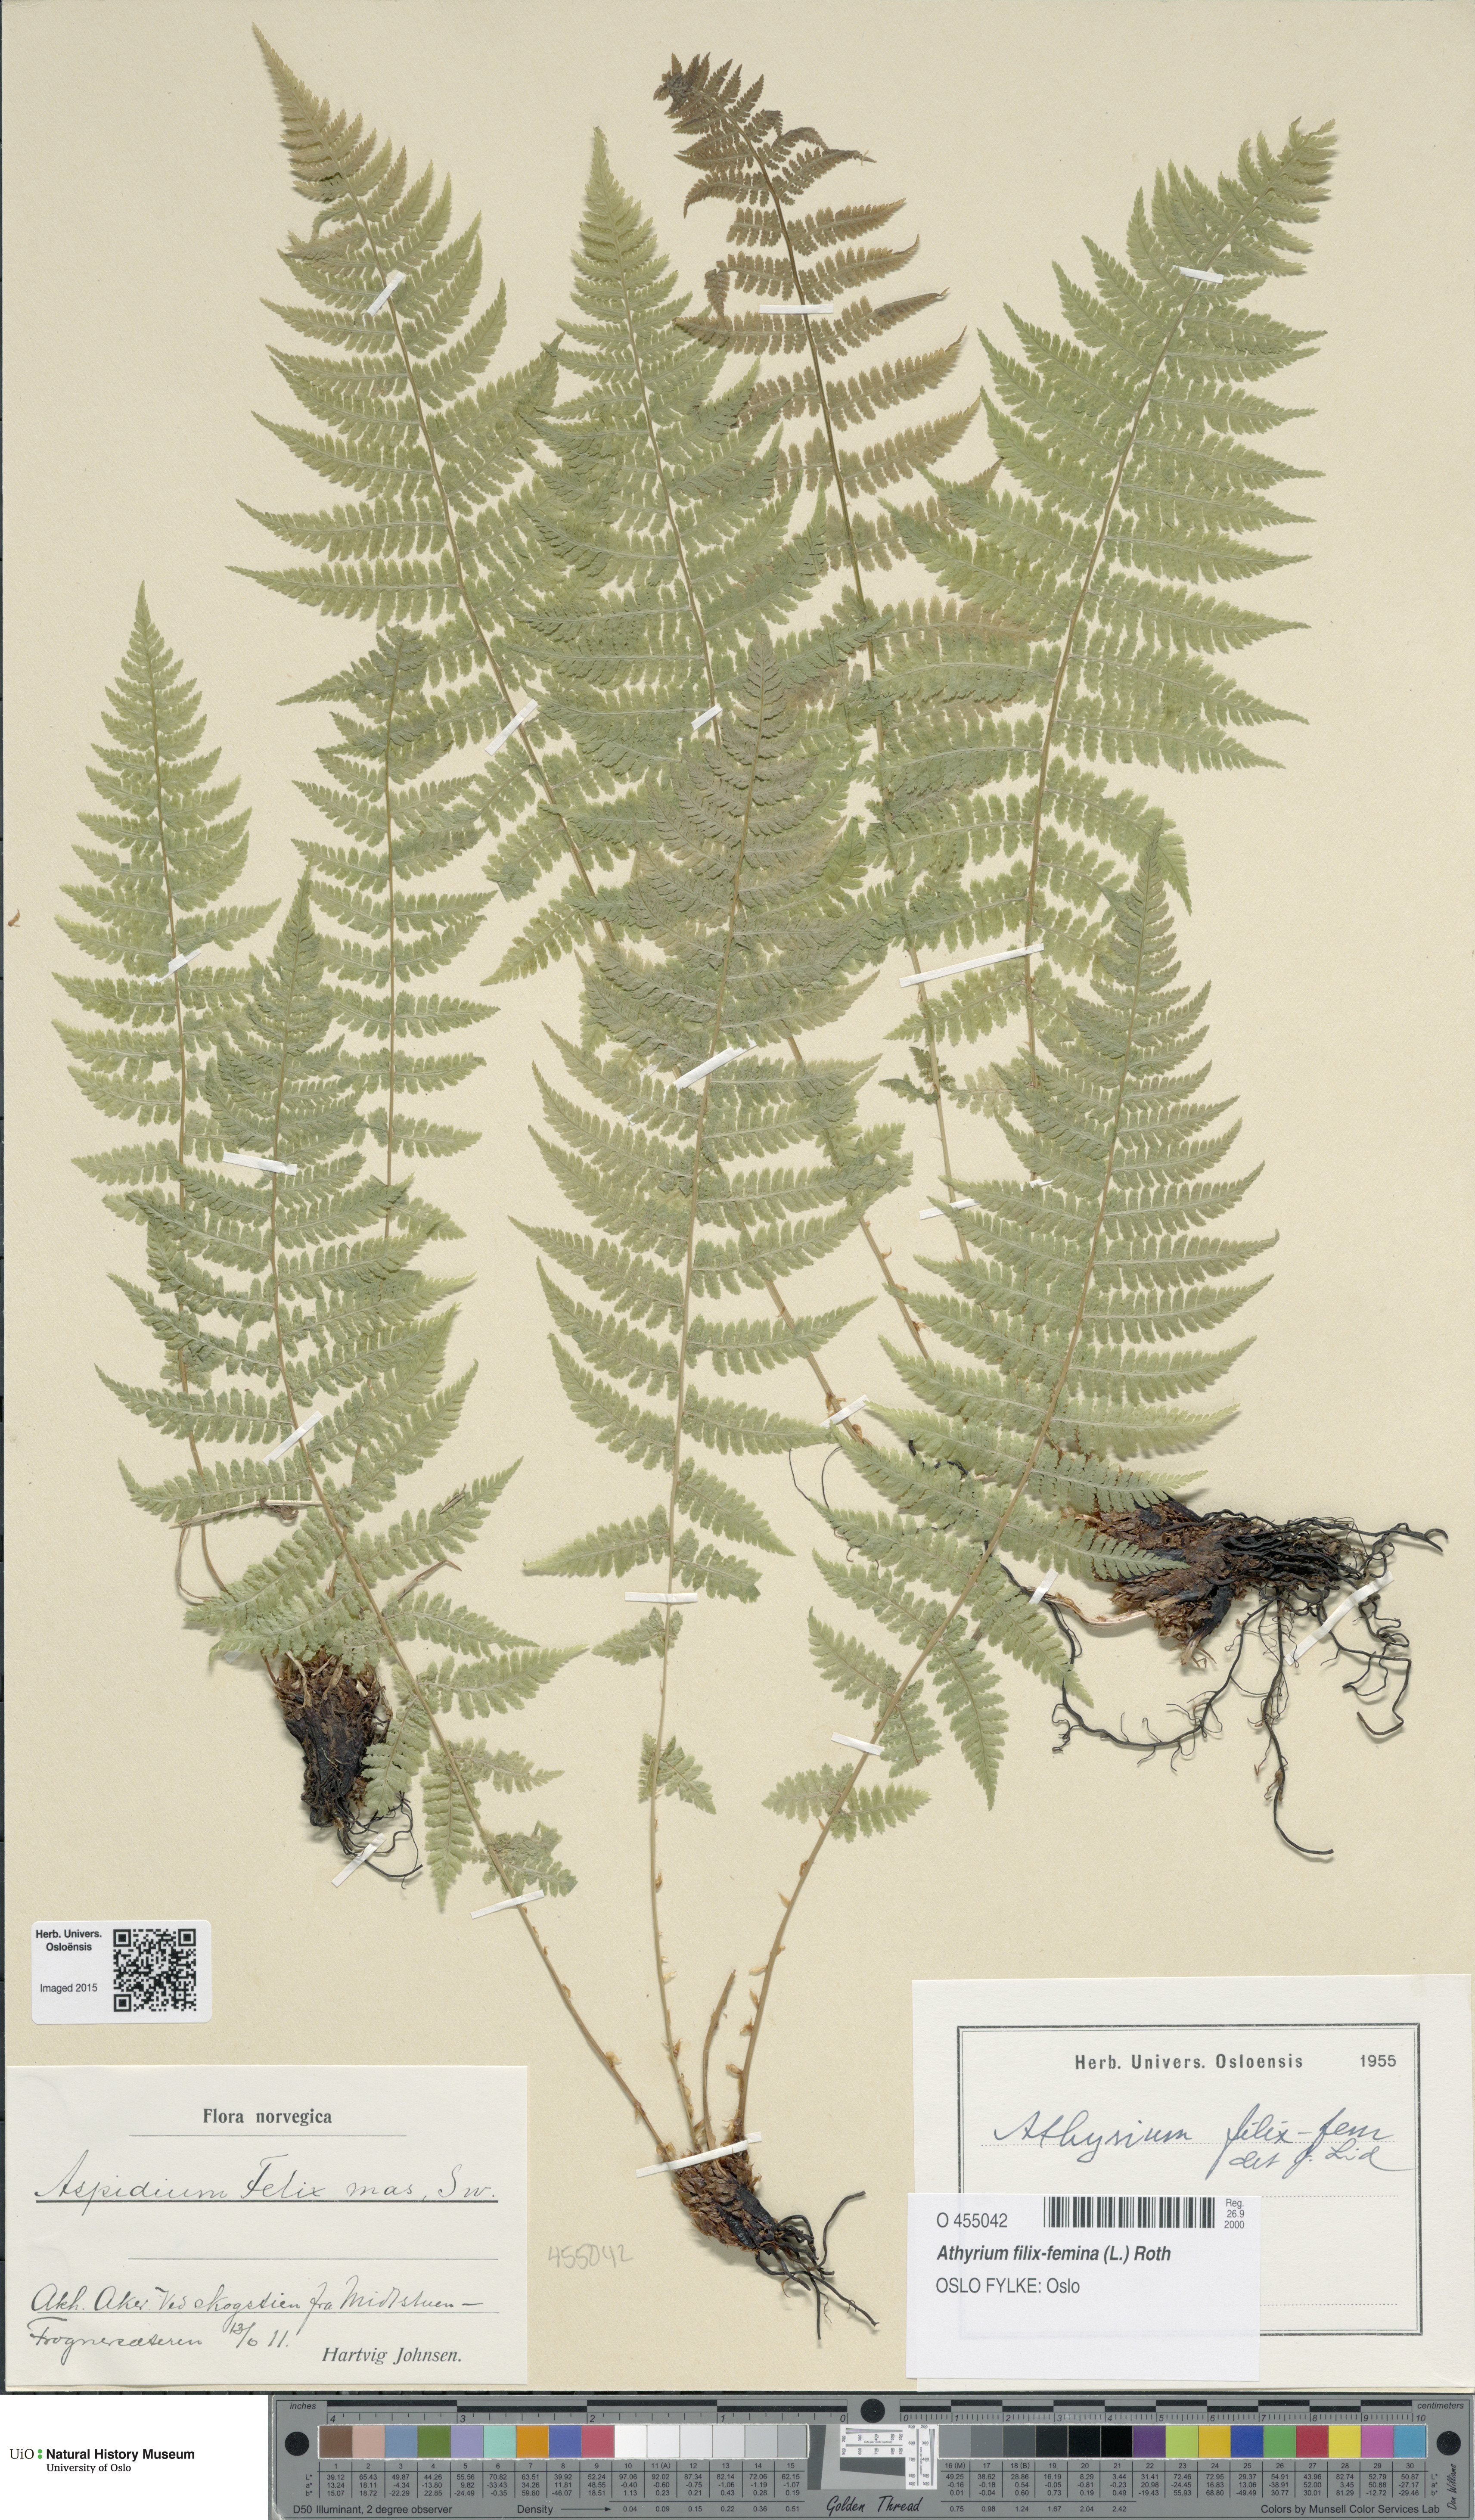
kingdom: Plantae
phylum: Tracheophyta
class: Polypodiopsida
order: Polypodiales
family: Athyriaceae
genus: Athyrium
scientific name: Athyrium filix-femina
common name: Lady fern
